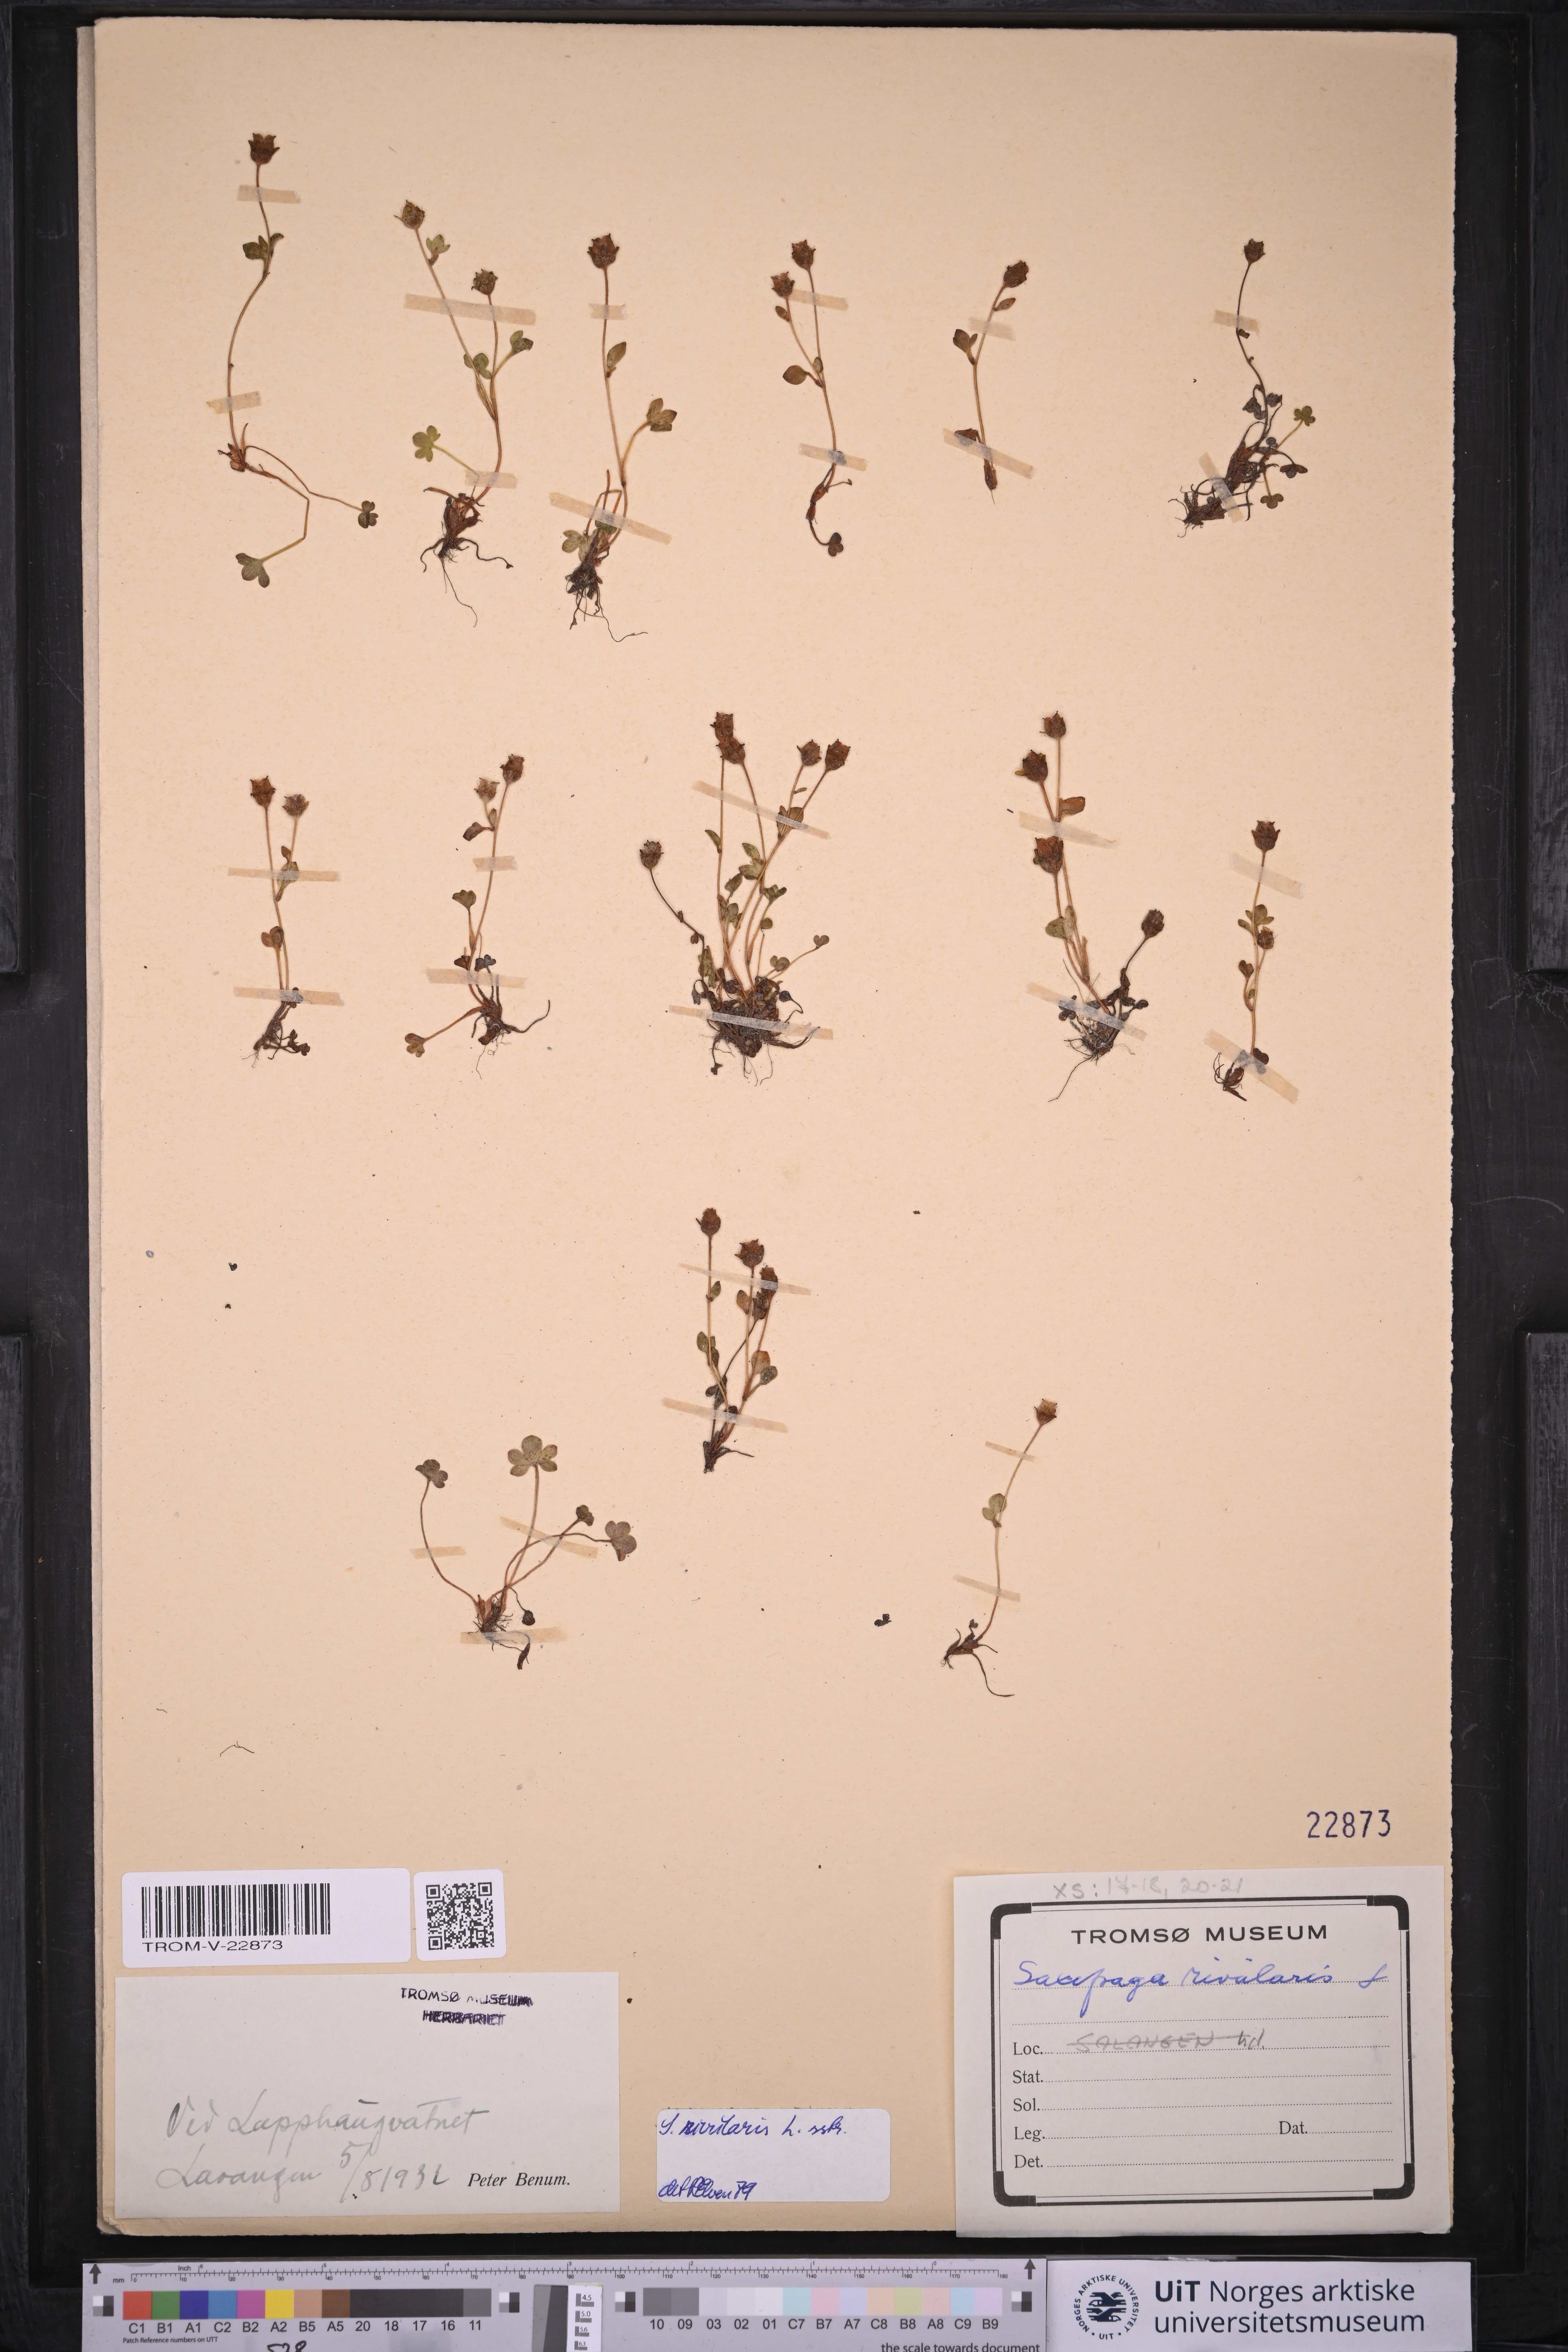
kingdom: Plantae
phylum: Tracheophyta
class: Magnoliopsida
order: Saxifragales
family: Saxifragaceae
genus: Saxifraga
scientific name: Saxifraga rivularis
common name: Highland saxifrage
